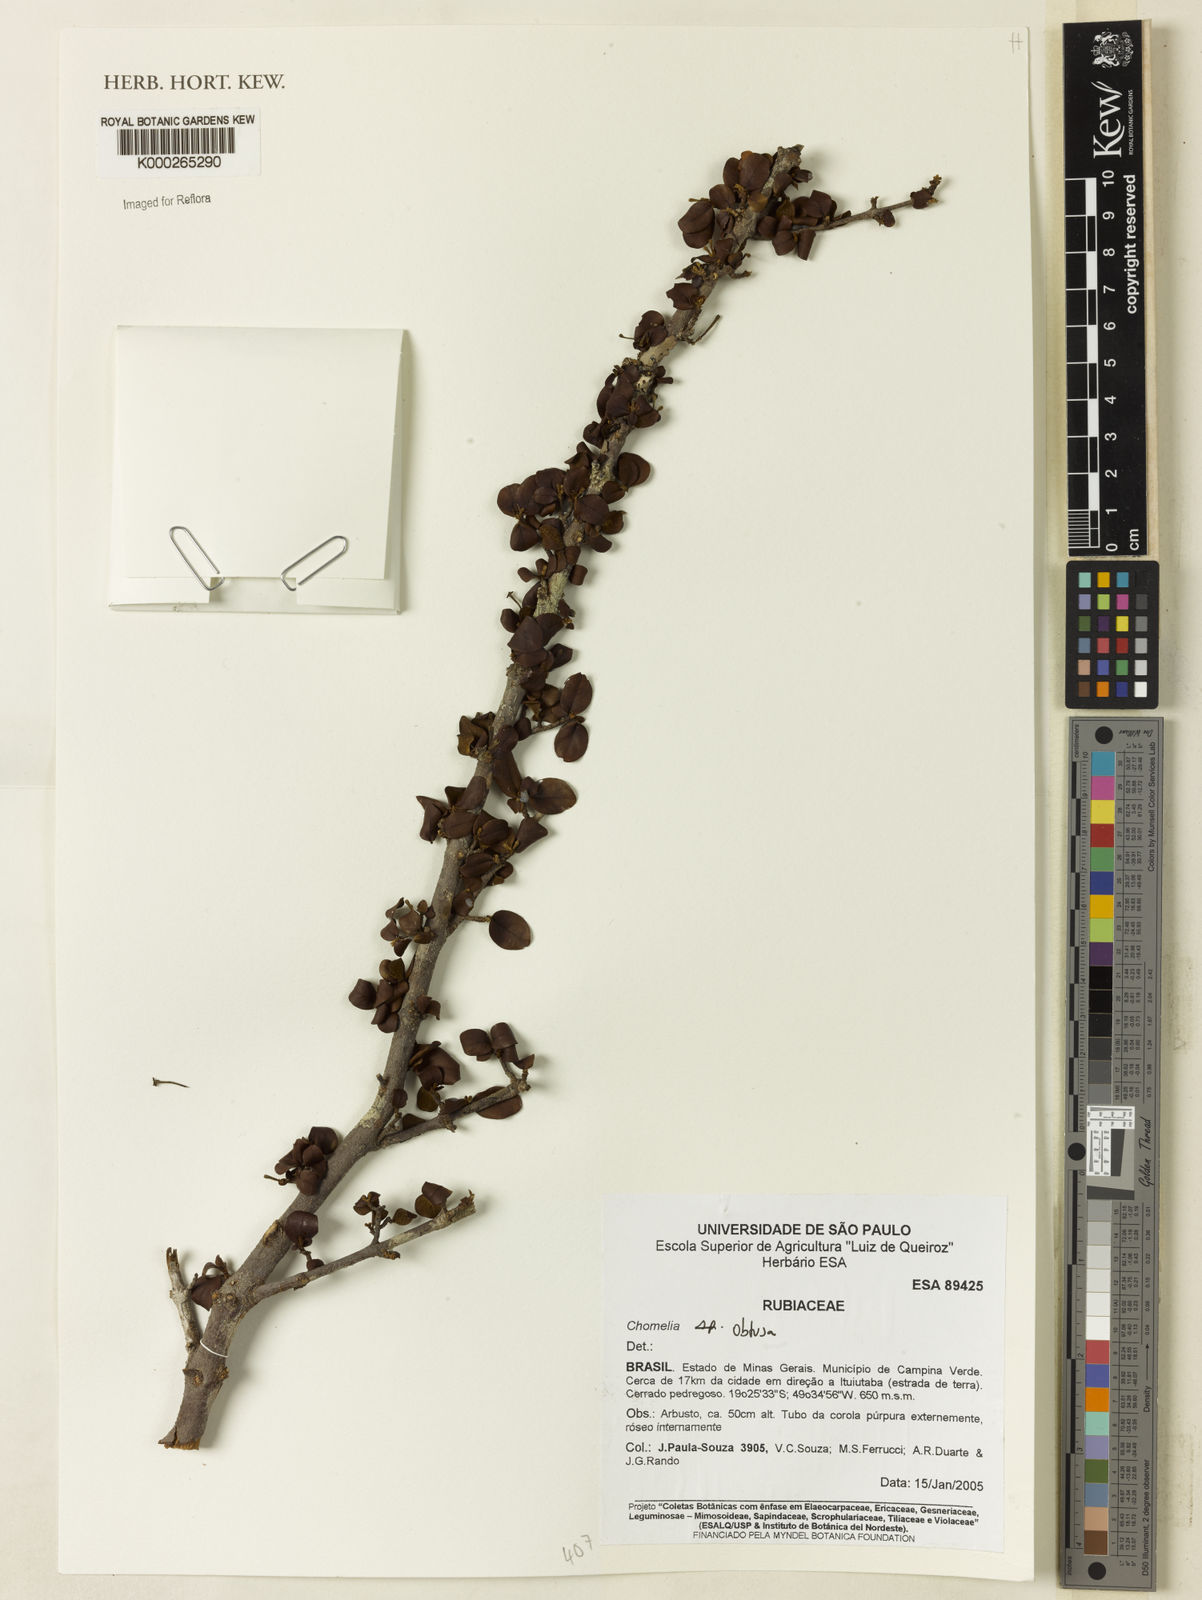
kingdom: Plantae
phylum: Tracheophyta
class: Magnoliopsida
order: Gentianales
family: Rubiaceae
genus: Chomelia
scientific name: Chomelia obtusa
